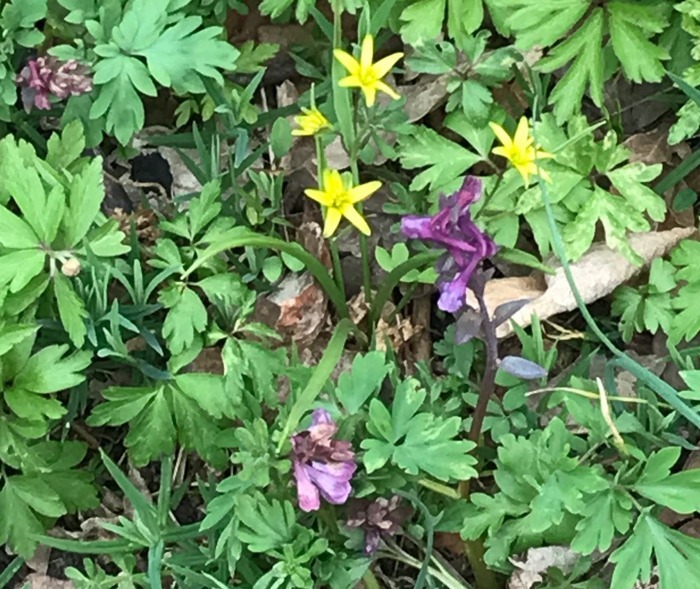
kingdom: Plantae
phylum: Tracheophyta
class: Magnoliopsida
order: Ranunculales
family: Papaveraceae
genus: Corydalis
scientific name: Corydalis cava
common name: Hulrodet lærkespore
